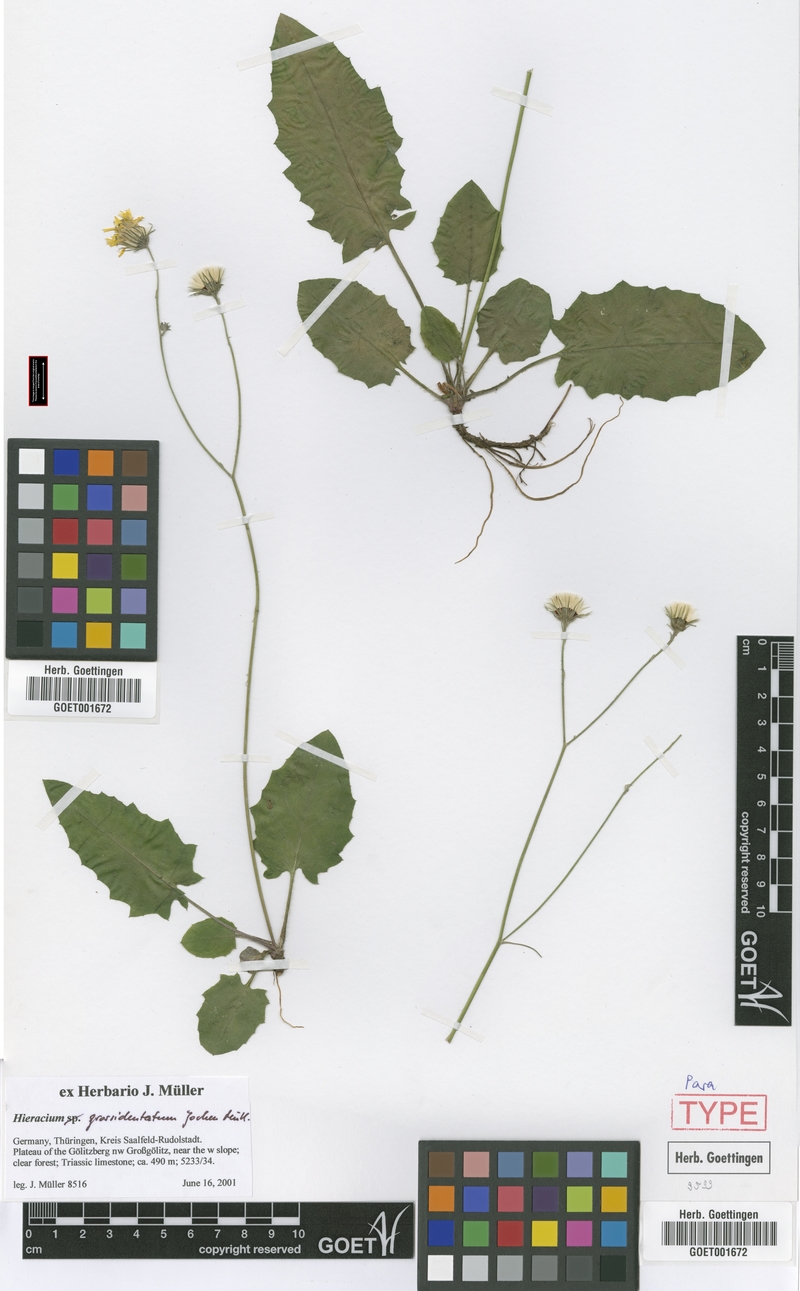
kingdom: Plantae
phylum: Tracheophyta
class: Magnoliopsida
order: Asterales
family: Asteraceae
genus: Hieracium
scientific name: Hieracium hypochoeroides
